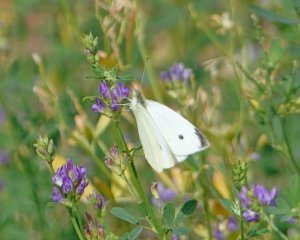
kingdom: Animalia
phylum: Arthropoda
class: Insecta
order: Lepidoptera
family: Pieridae
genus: Pieris
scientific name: Pieris rapae
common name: Cabbage White
